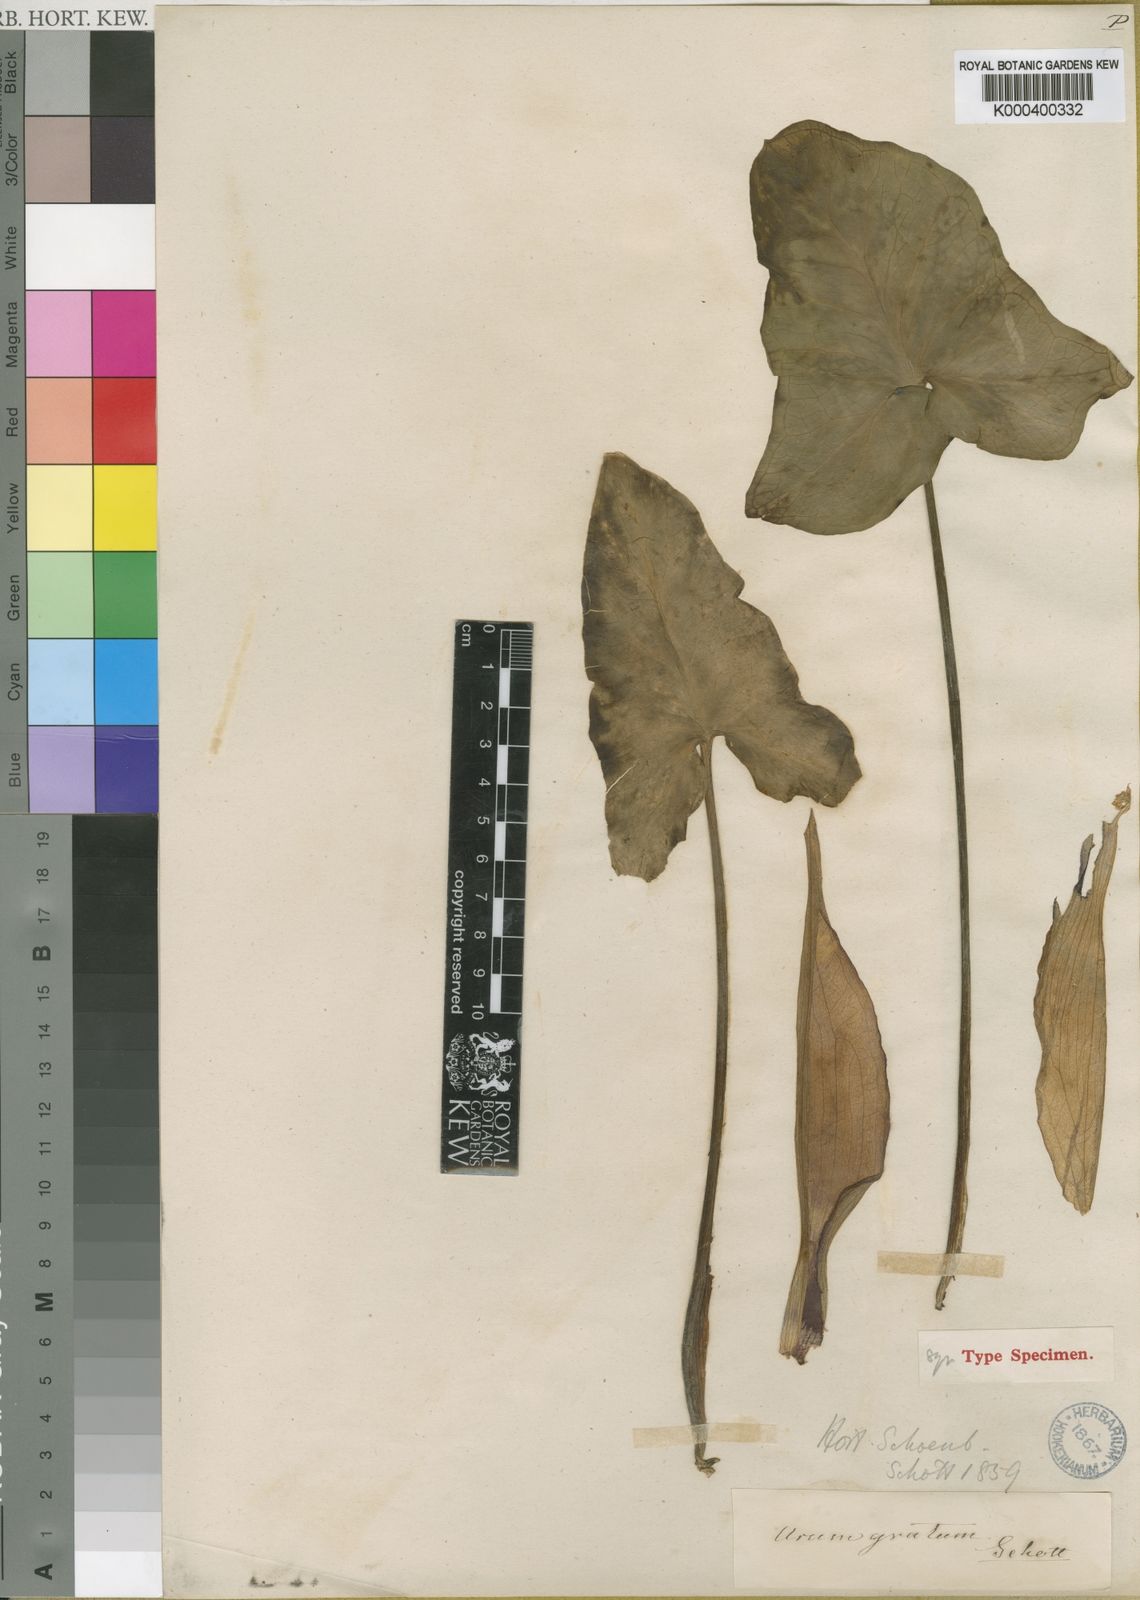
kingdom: Plantae
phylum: Tracheophyta
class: Liliopsida
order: Alismatales
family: Araceae
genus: Arum
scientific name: Arum gratum
